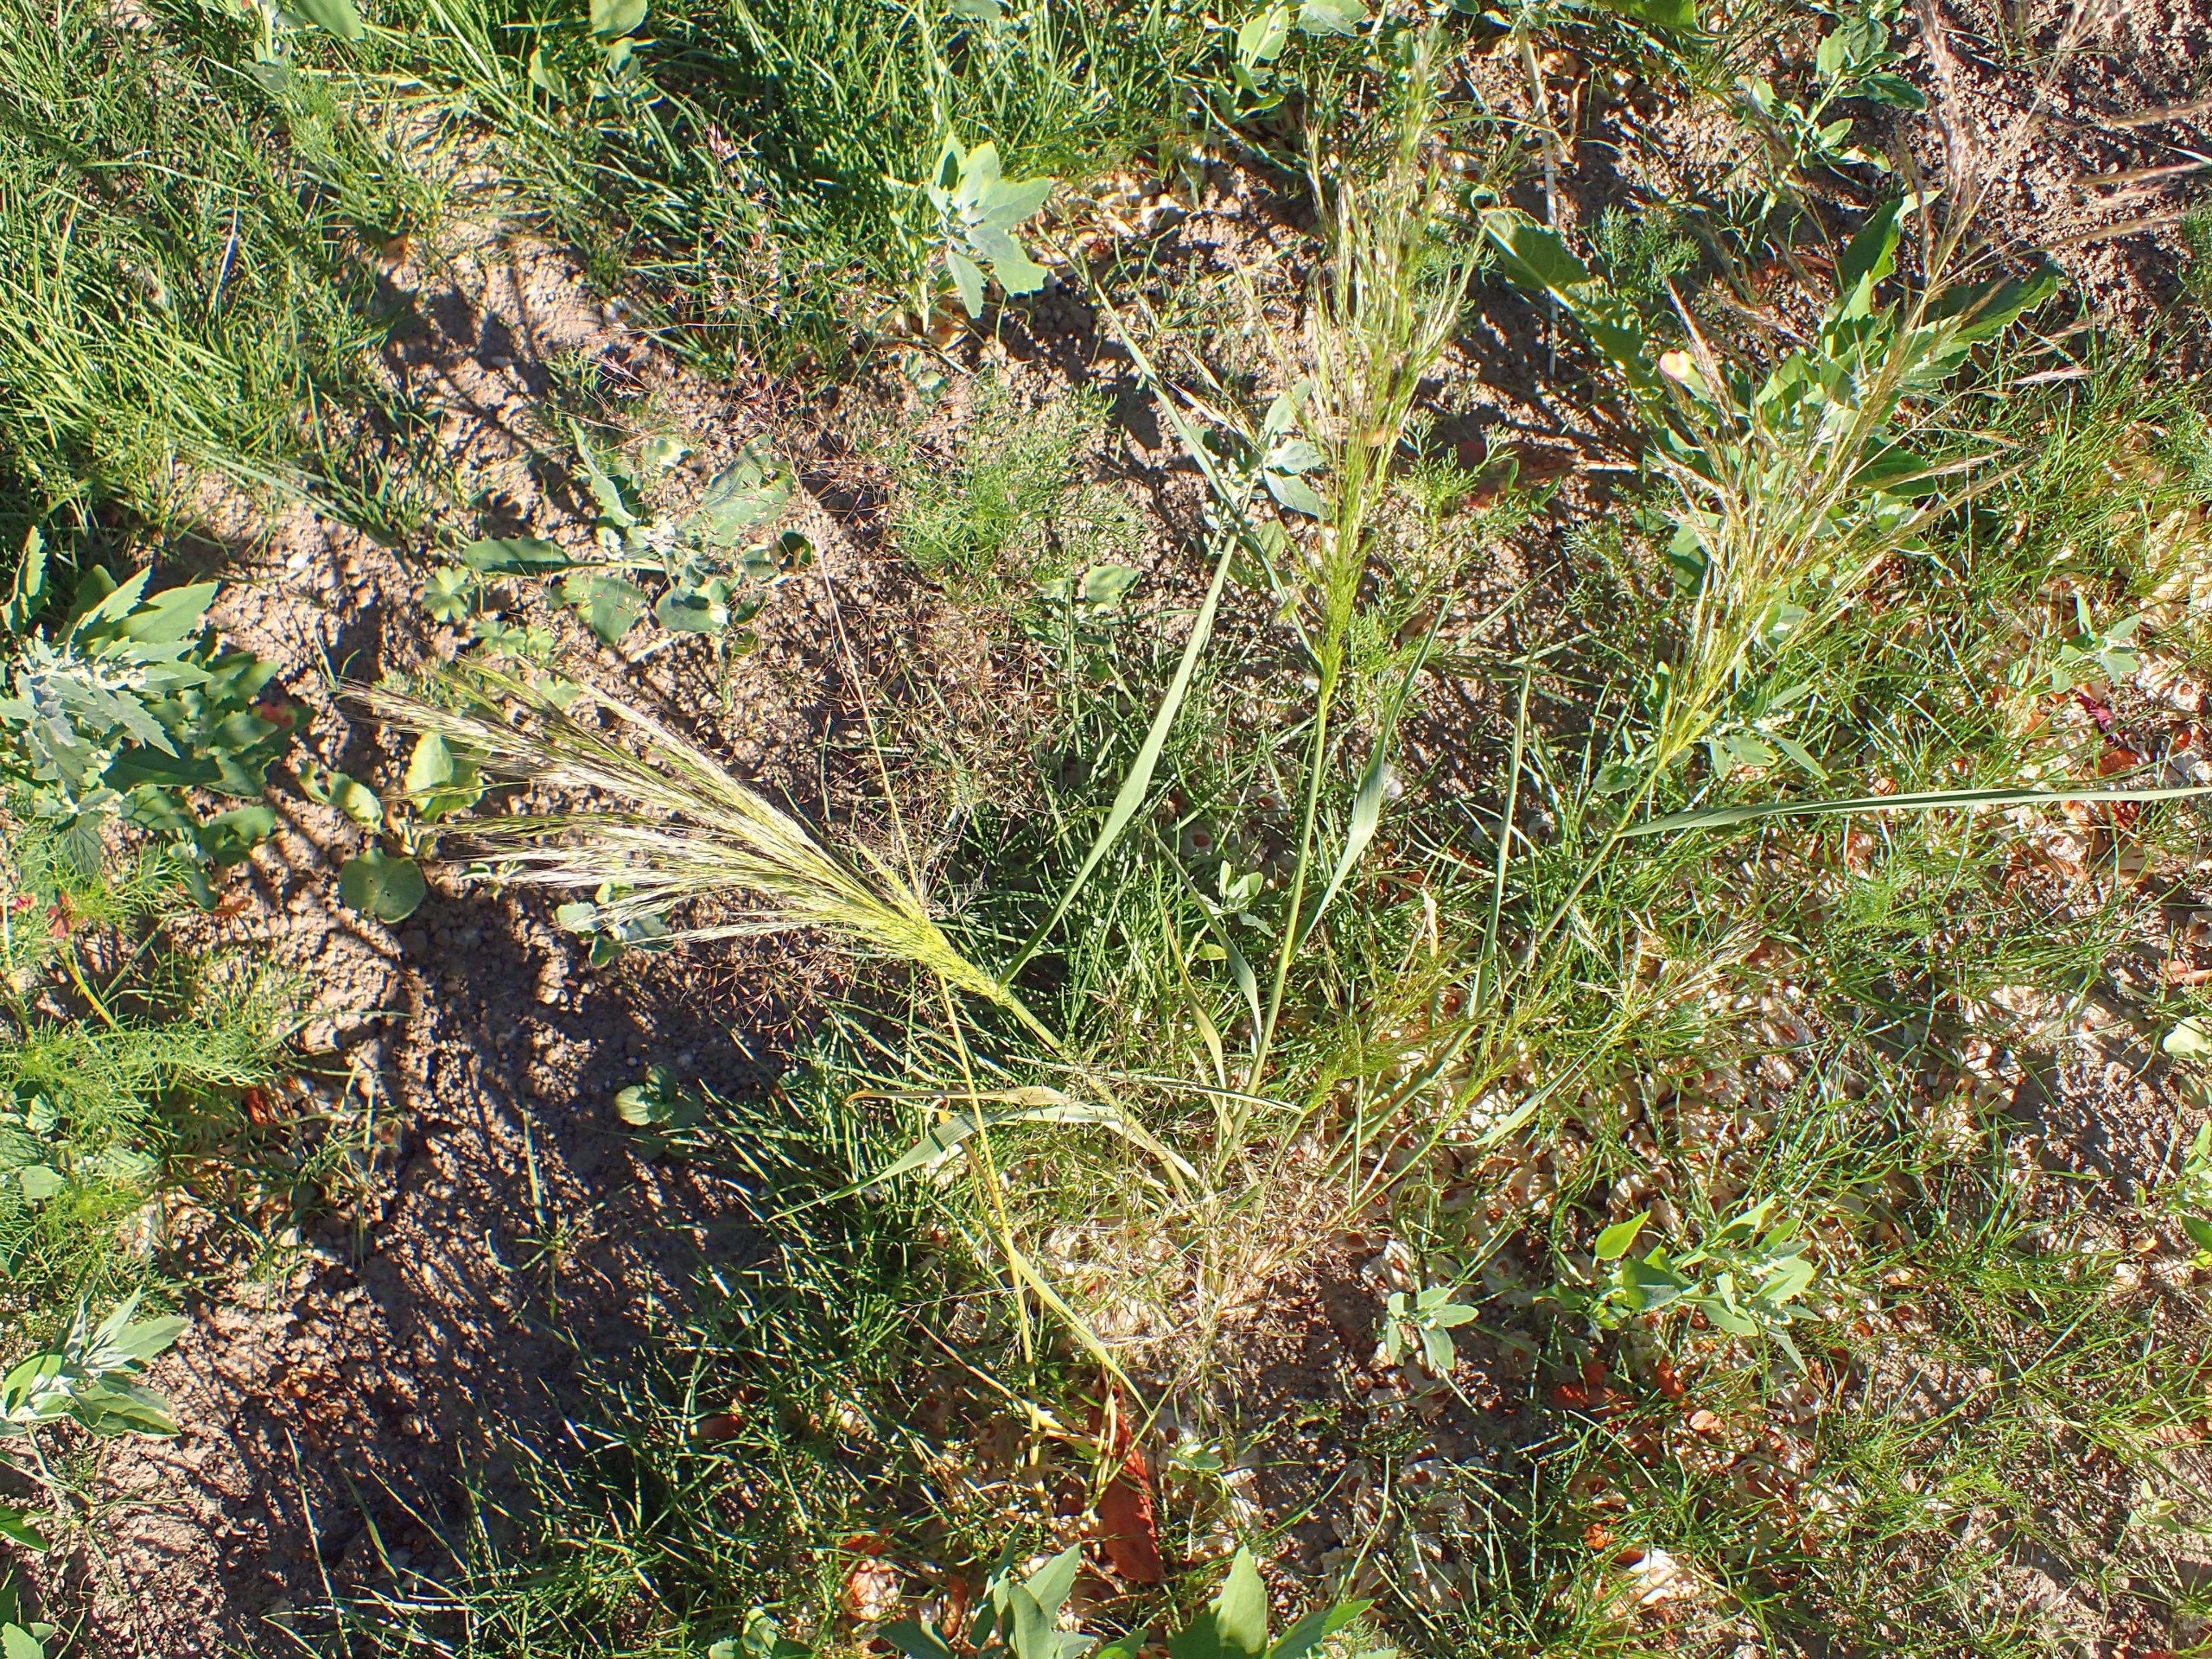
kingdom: Plantae
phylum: Tracheophyta
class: Liliopsida
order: Poales
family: Poaceae
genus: Apera
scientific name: Apera spica-venti
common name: Vindaks
